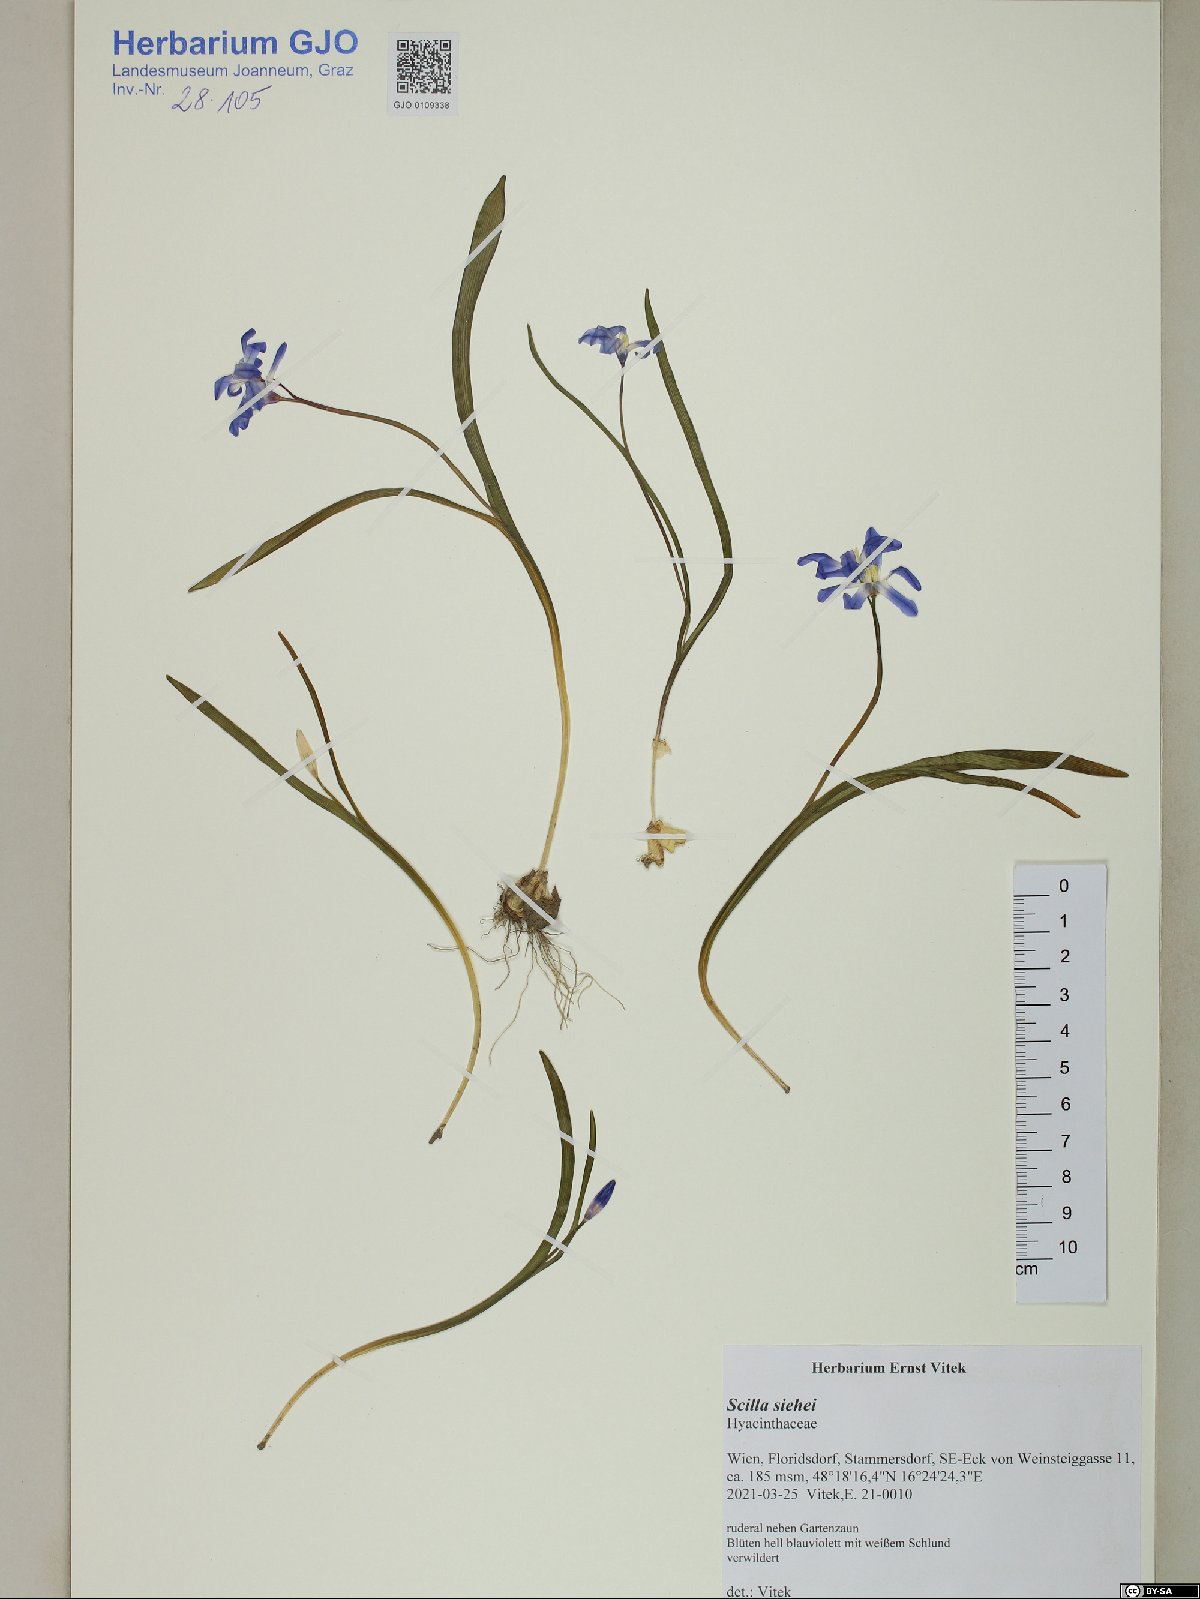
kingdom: Plantae
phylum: Tracheophyta
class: Liliopsida
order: Asparagales
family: Asparagaceae
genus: Scilla
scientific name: Scilla forbesii
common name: Glory-of-the-snow
